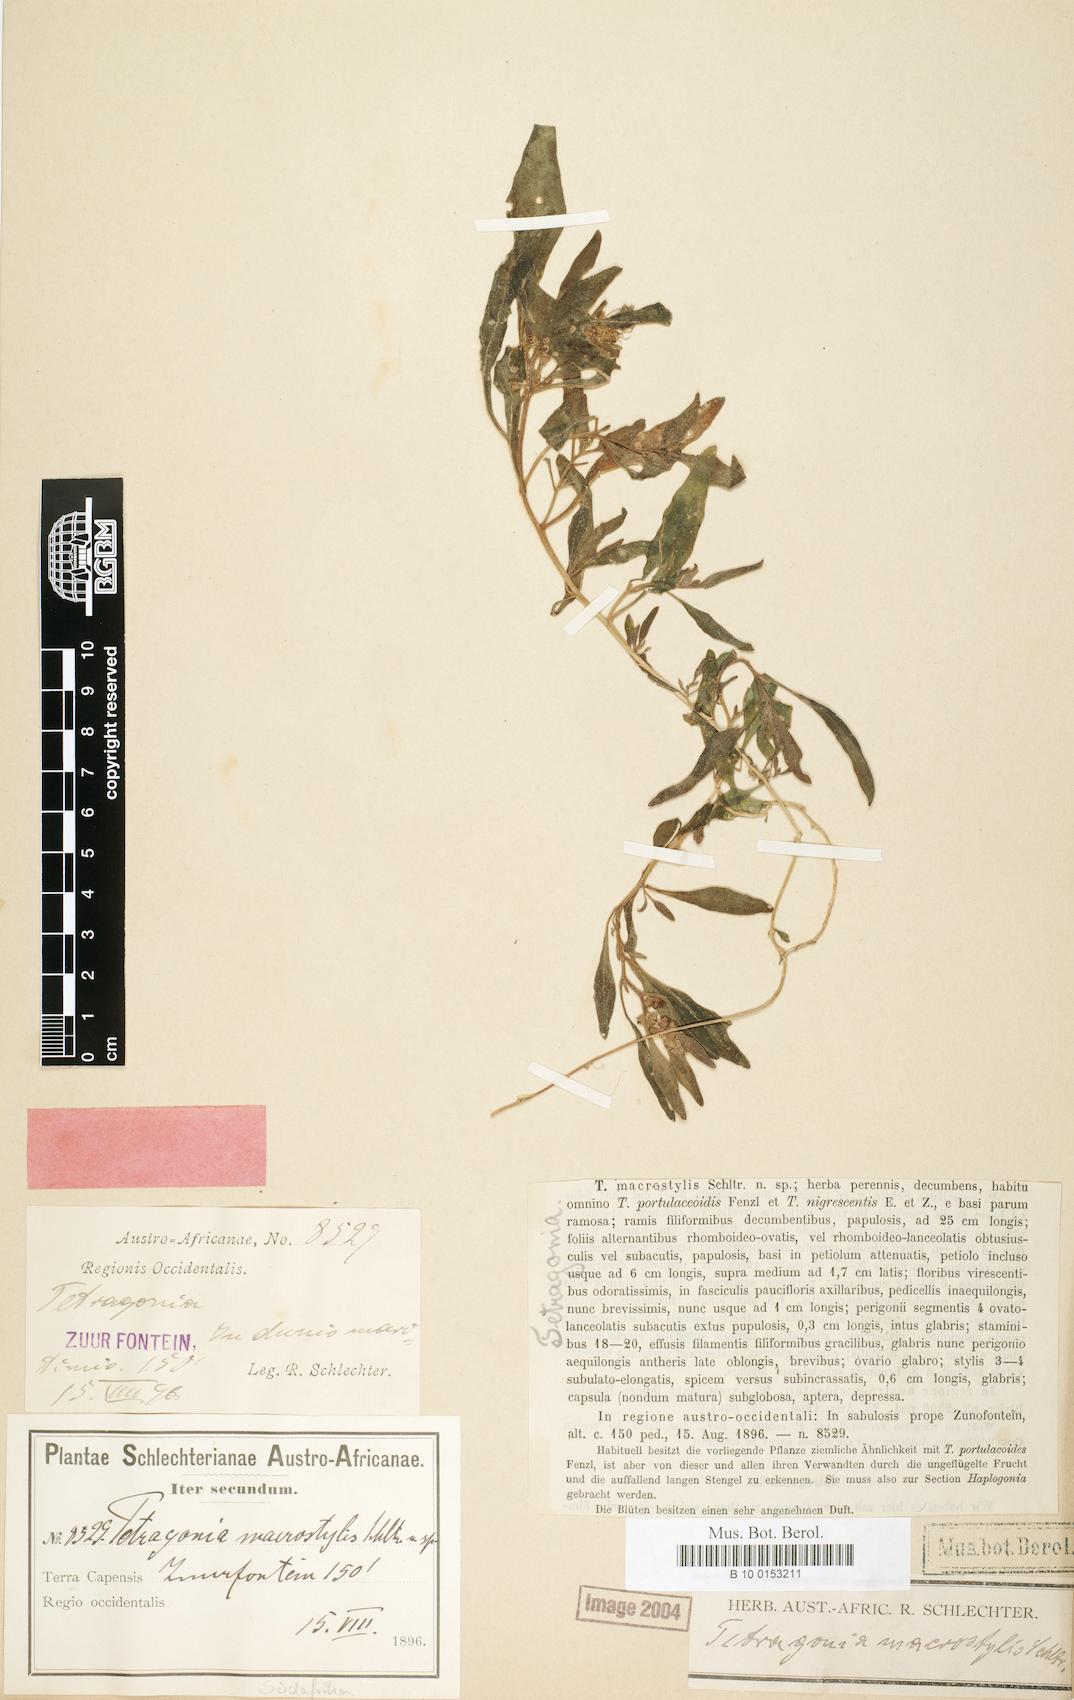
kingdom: Plantae
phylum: Tracheophyta
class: Magnoliopsida
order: Caryophyllales
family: Aizoaceae
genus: Tetragonia
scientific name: Tetragonia chenopodioides
